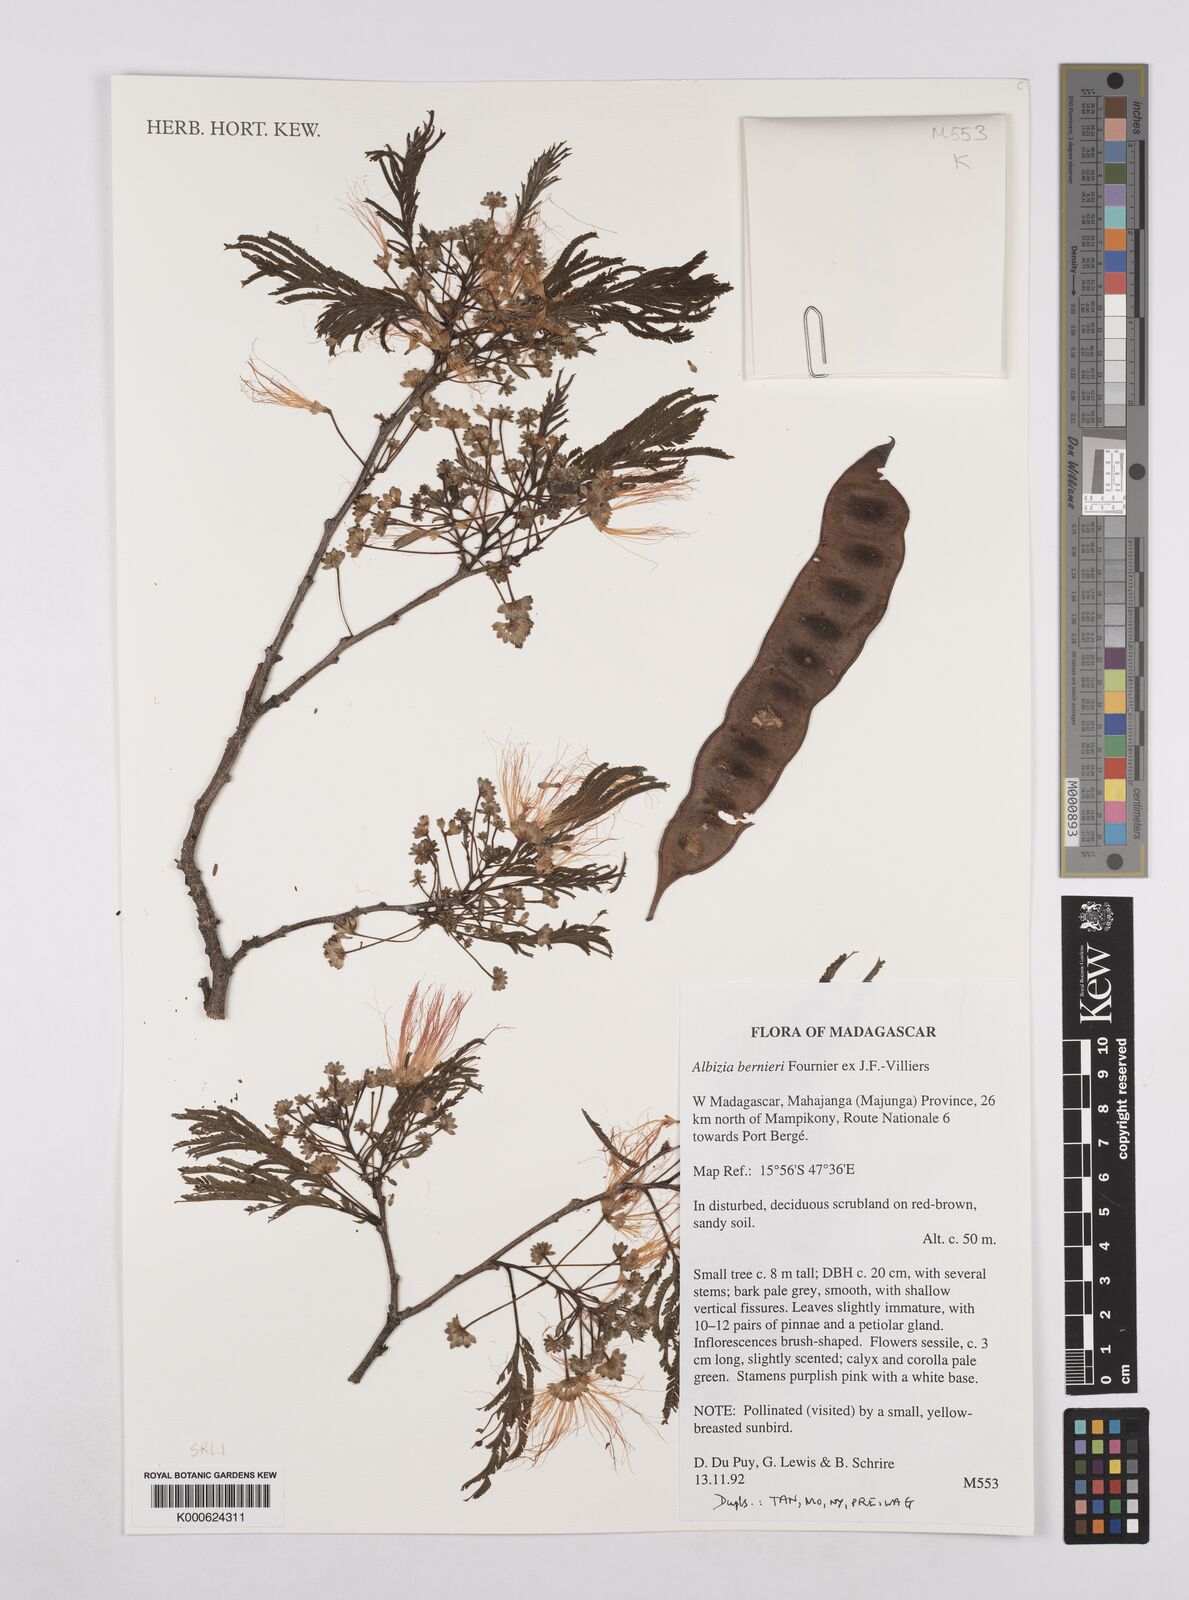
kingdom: Plantae
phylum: Tracheophyta
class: Magnoliopsida
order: Fabales
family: Fabaceae
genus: Albizia
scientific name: Albizia bernieri
